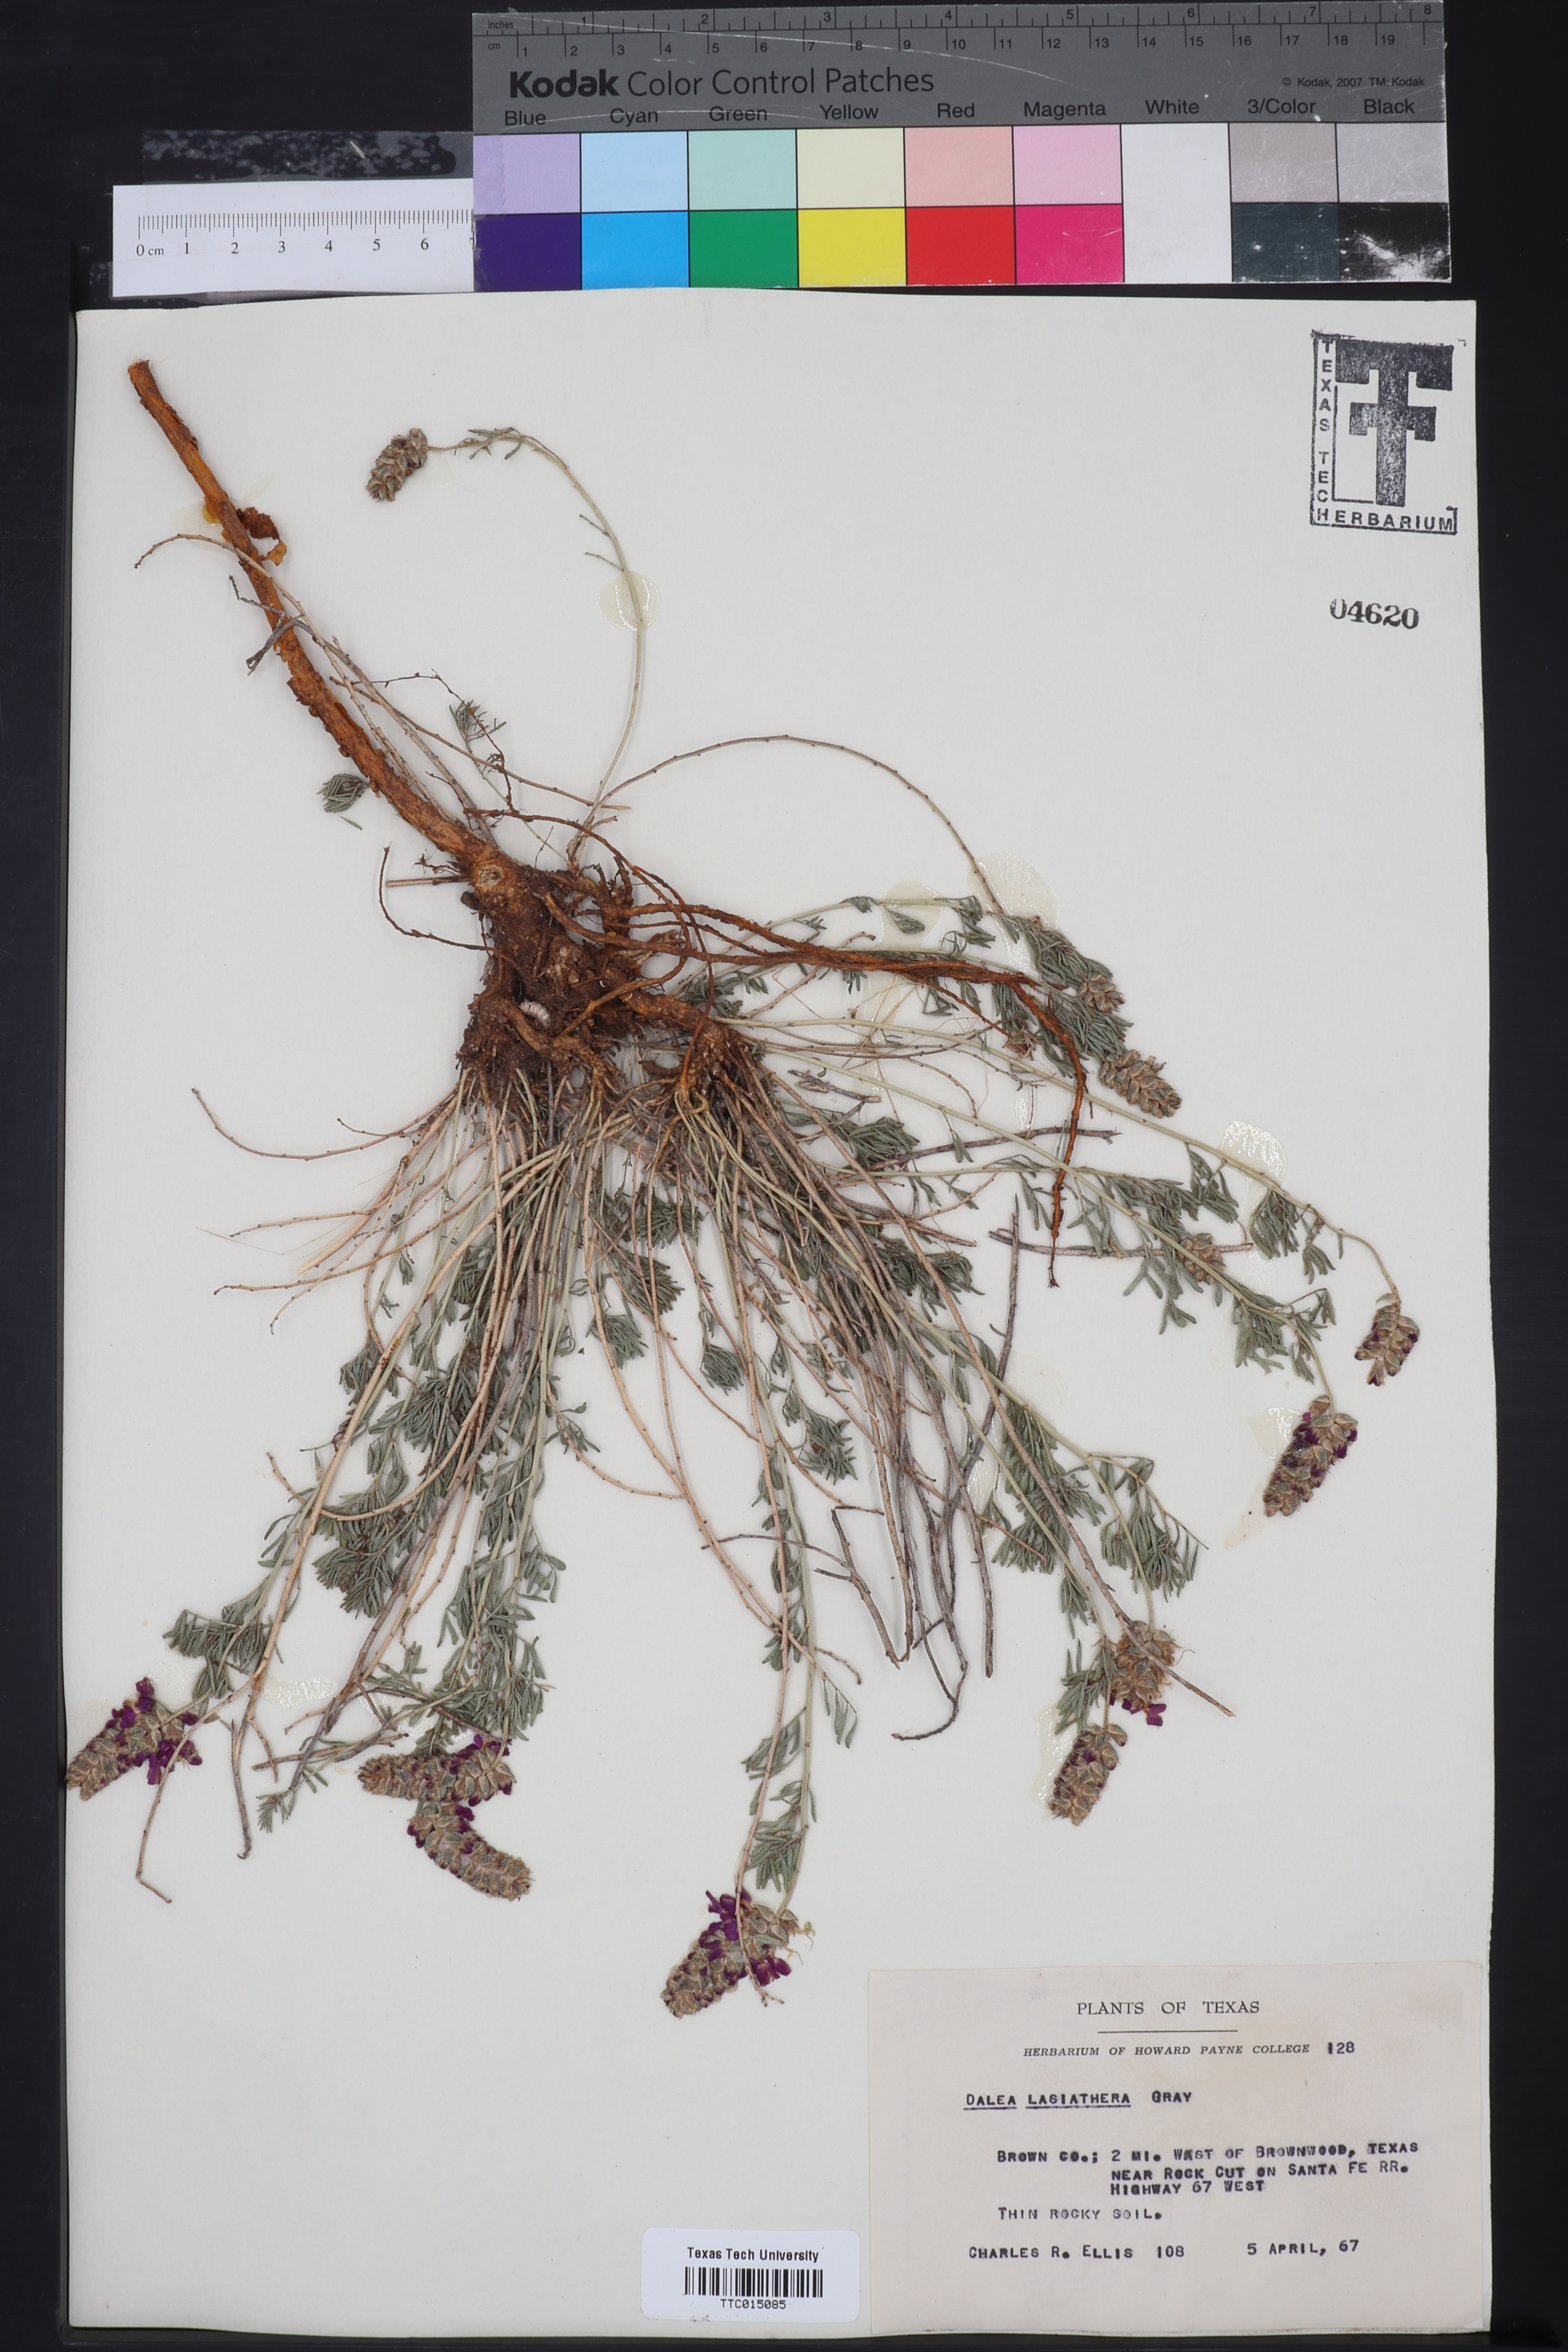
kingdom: Plantae
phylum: Tracheophyta
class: Magnoliopsida
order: Fabales
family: Fabaceae
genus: Dalea
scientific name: Dalea lasiathera
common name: Purple prairie-clover
